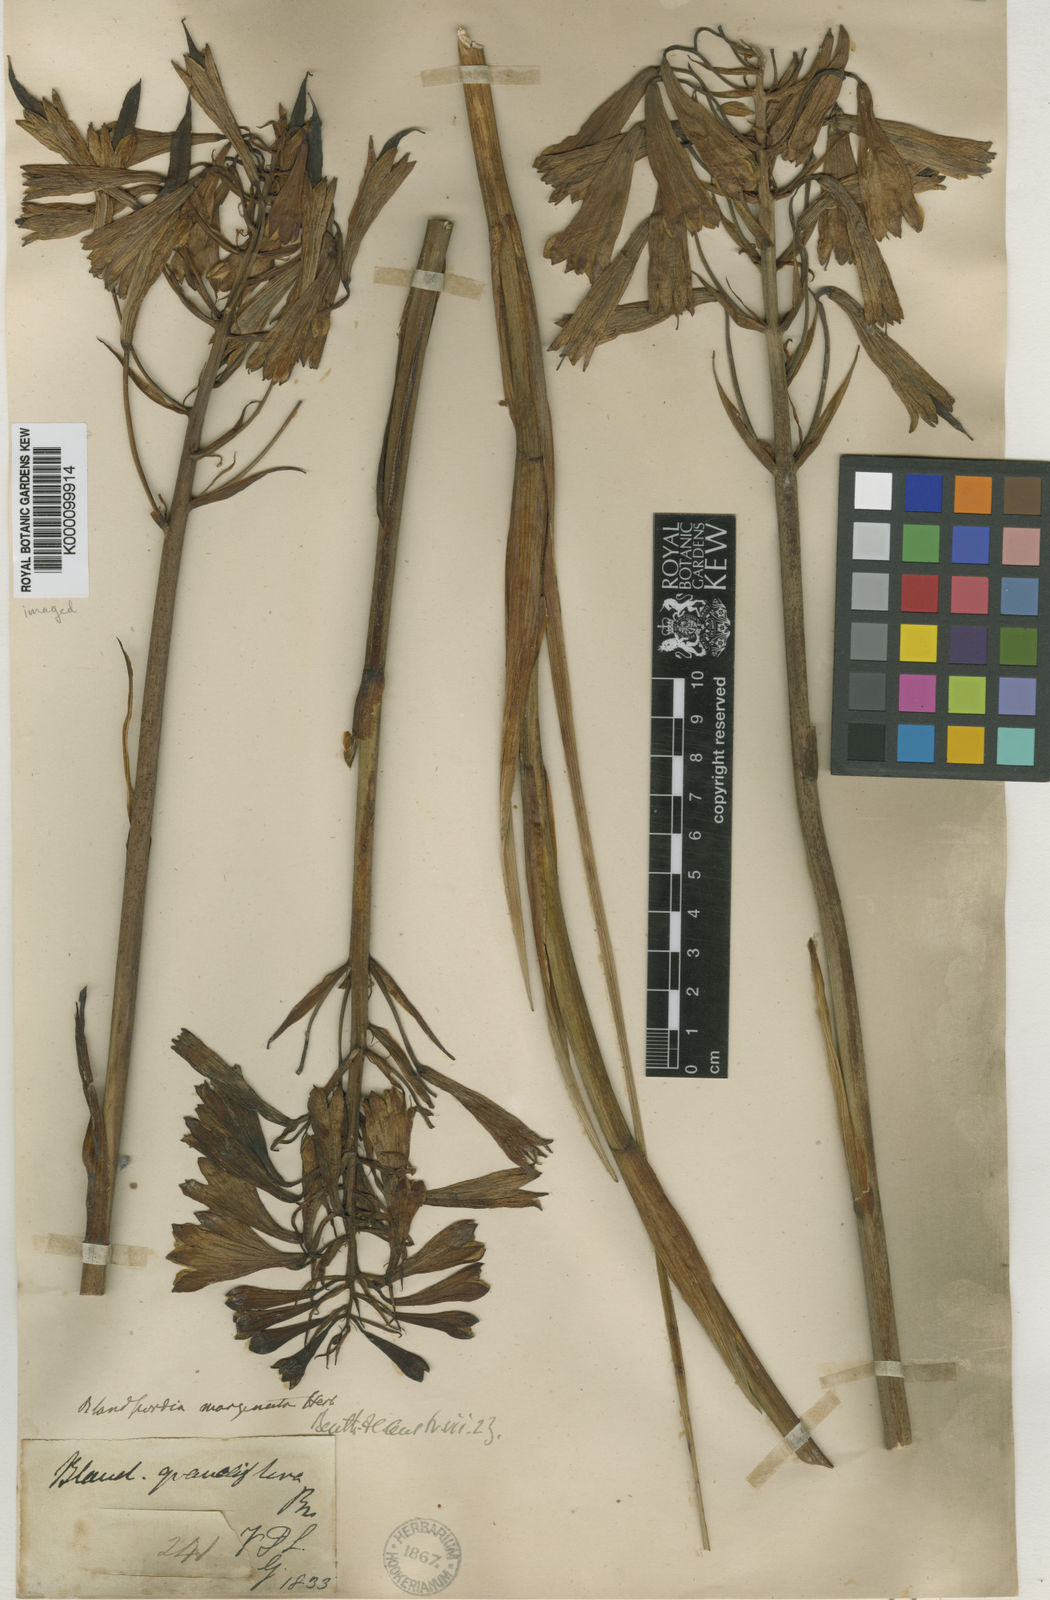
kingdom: Plantae
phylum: Tracheophyta
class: Liliopsida
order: Asparagales
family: Blandfordiaceae
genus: Blandfordia
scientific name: Blandfordia punicea
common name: Tasmanian christmas-bell
